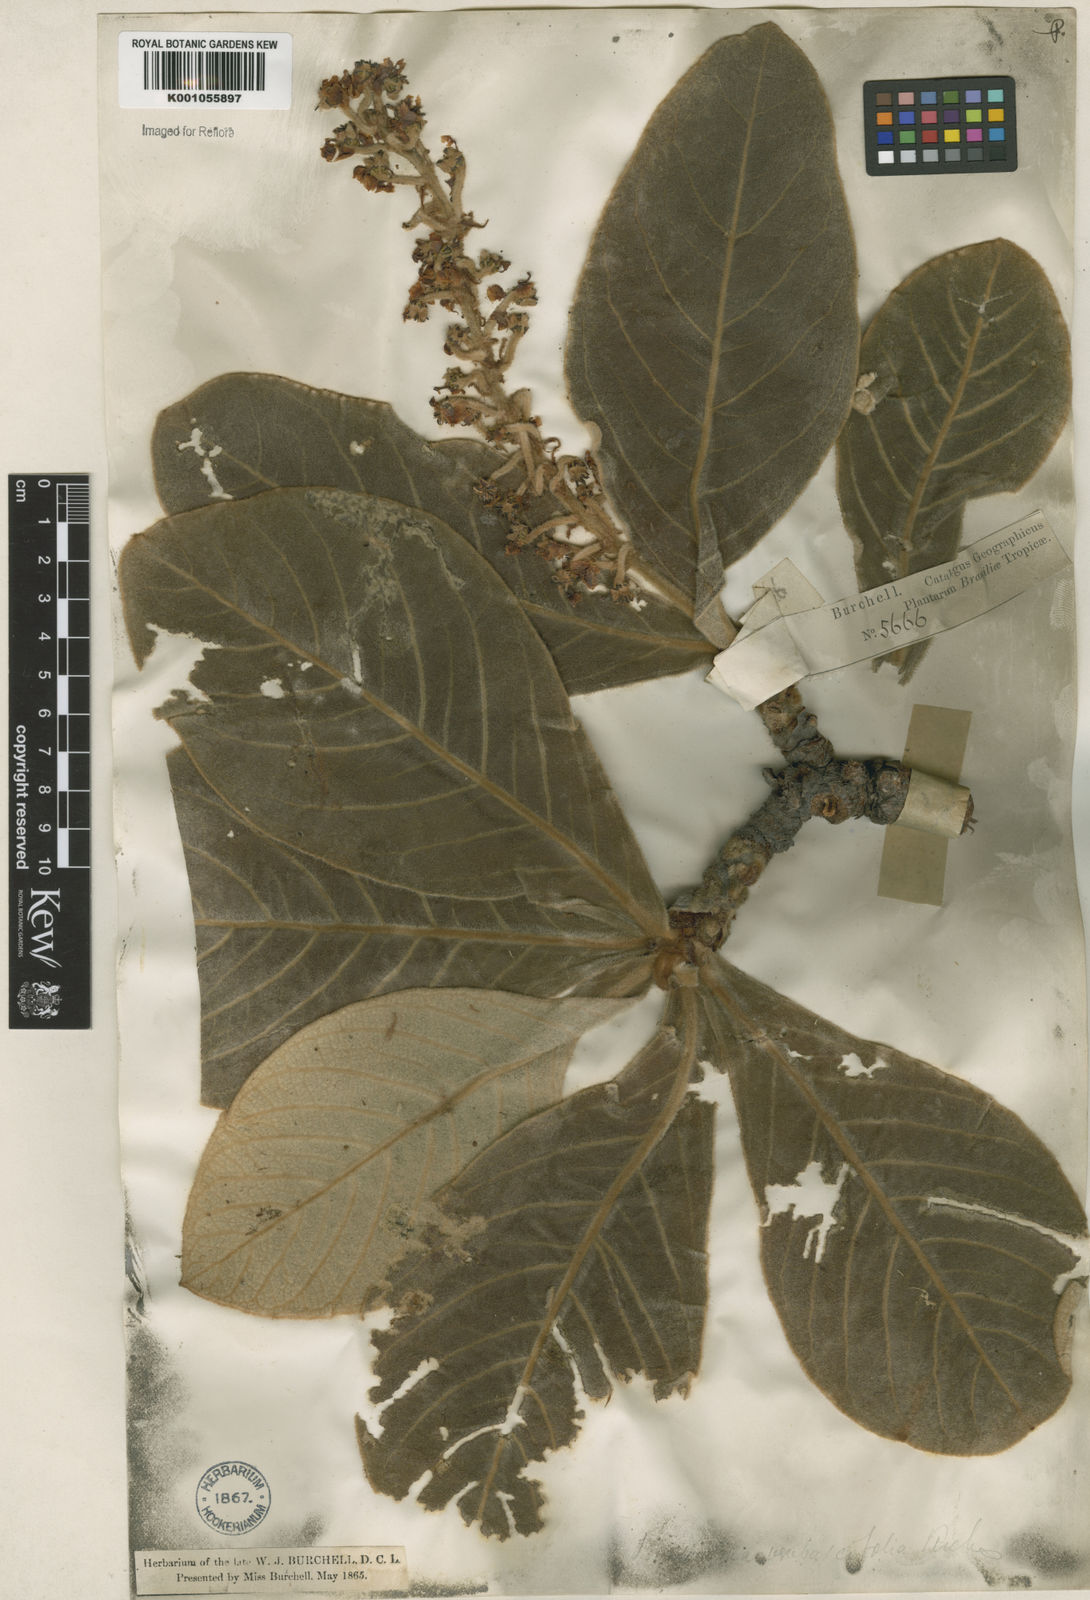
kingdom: Plantae
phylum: Tracheophyta
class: Magnoliopsida
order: Malpighiales
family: Malpighiaceae
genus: Byrsonima
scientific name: Byrsonima verbascifolia
